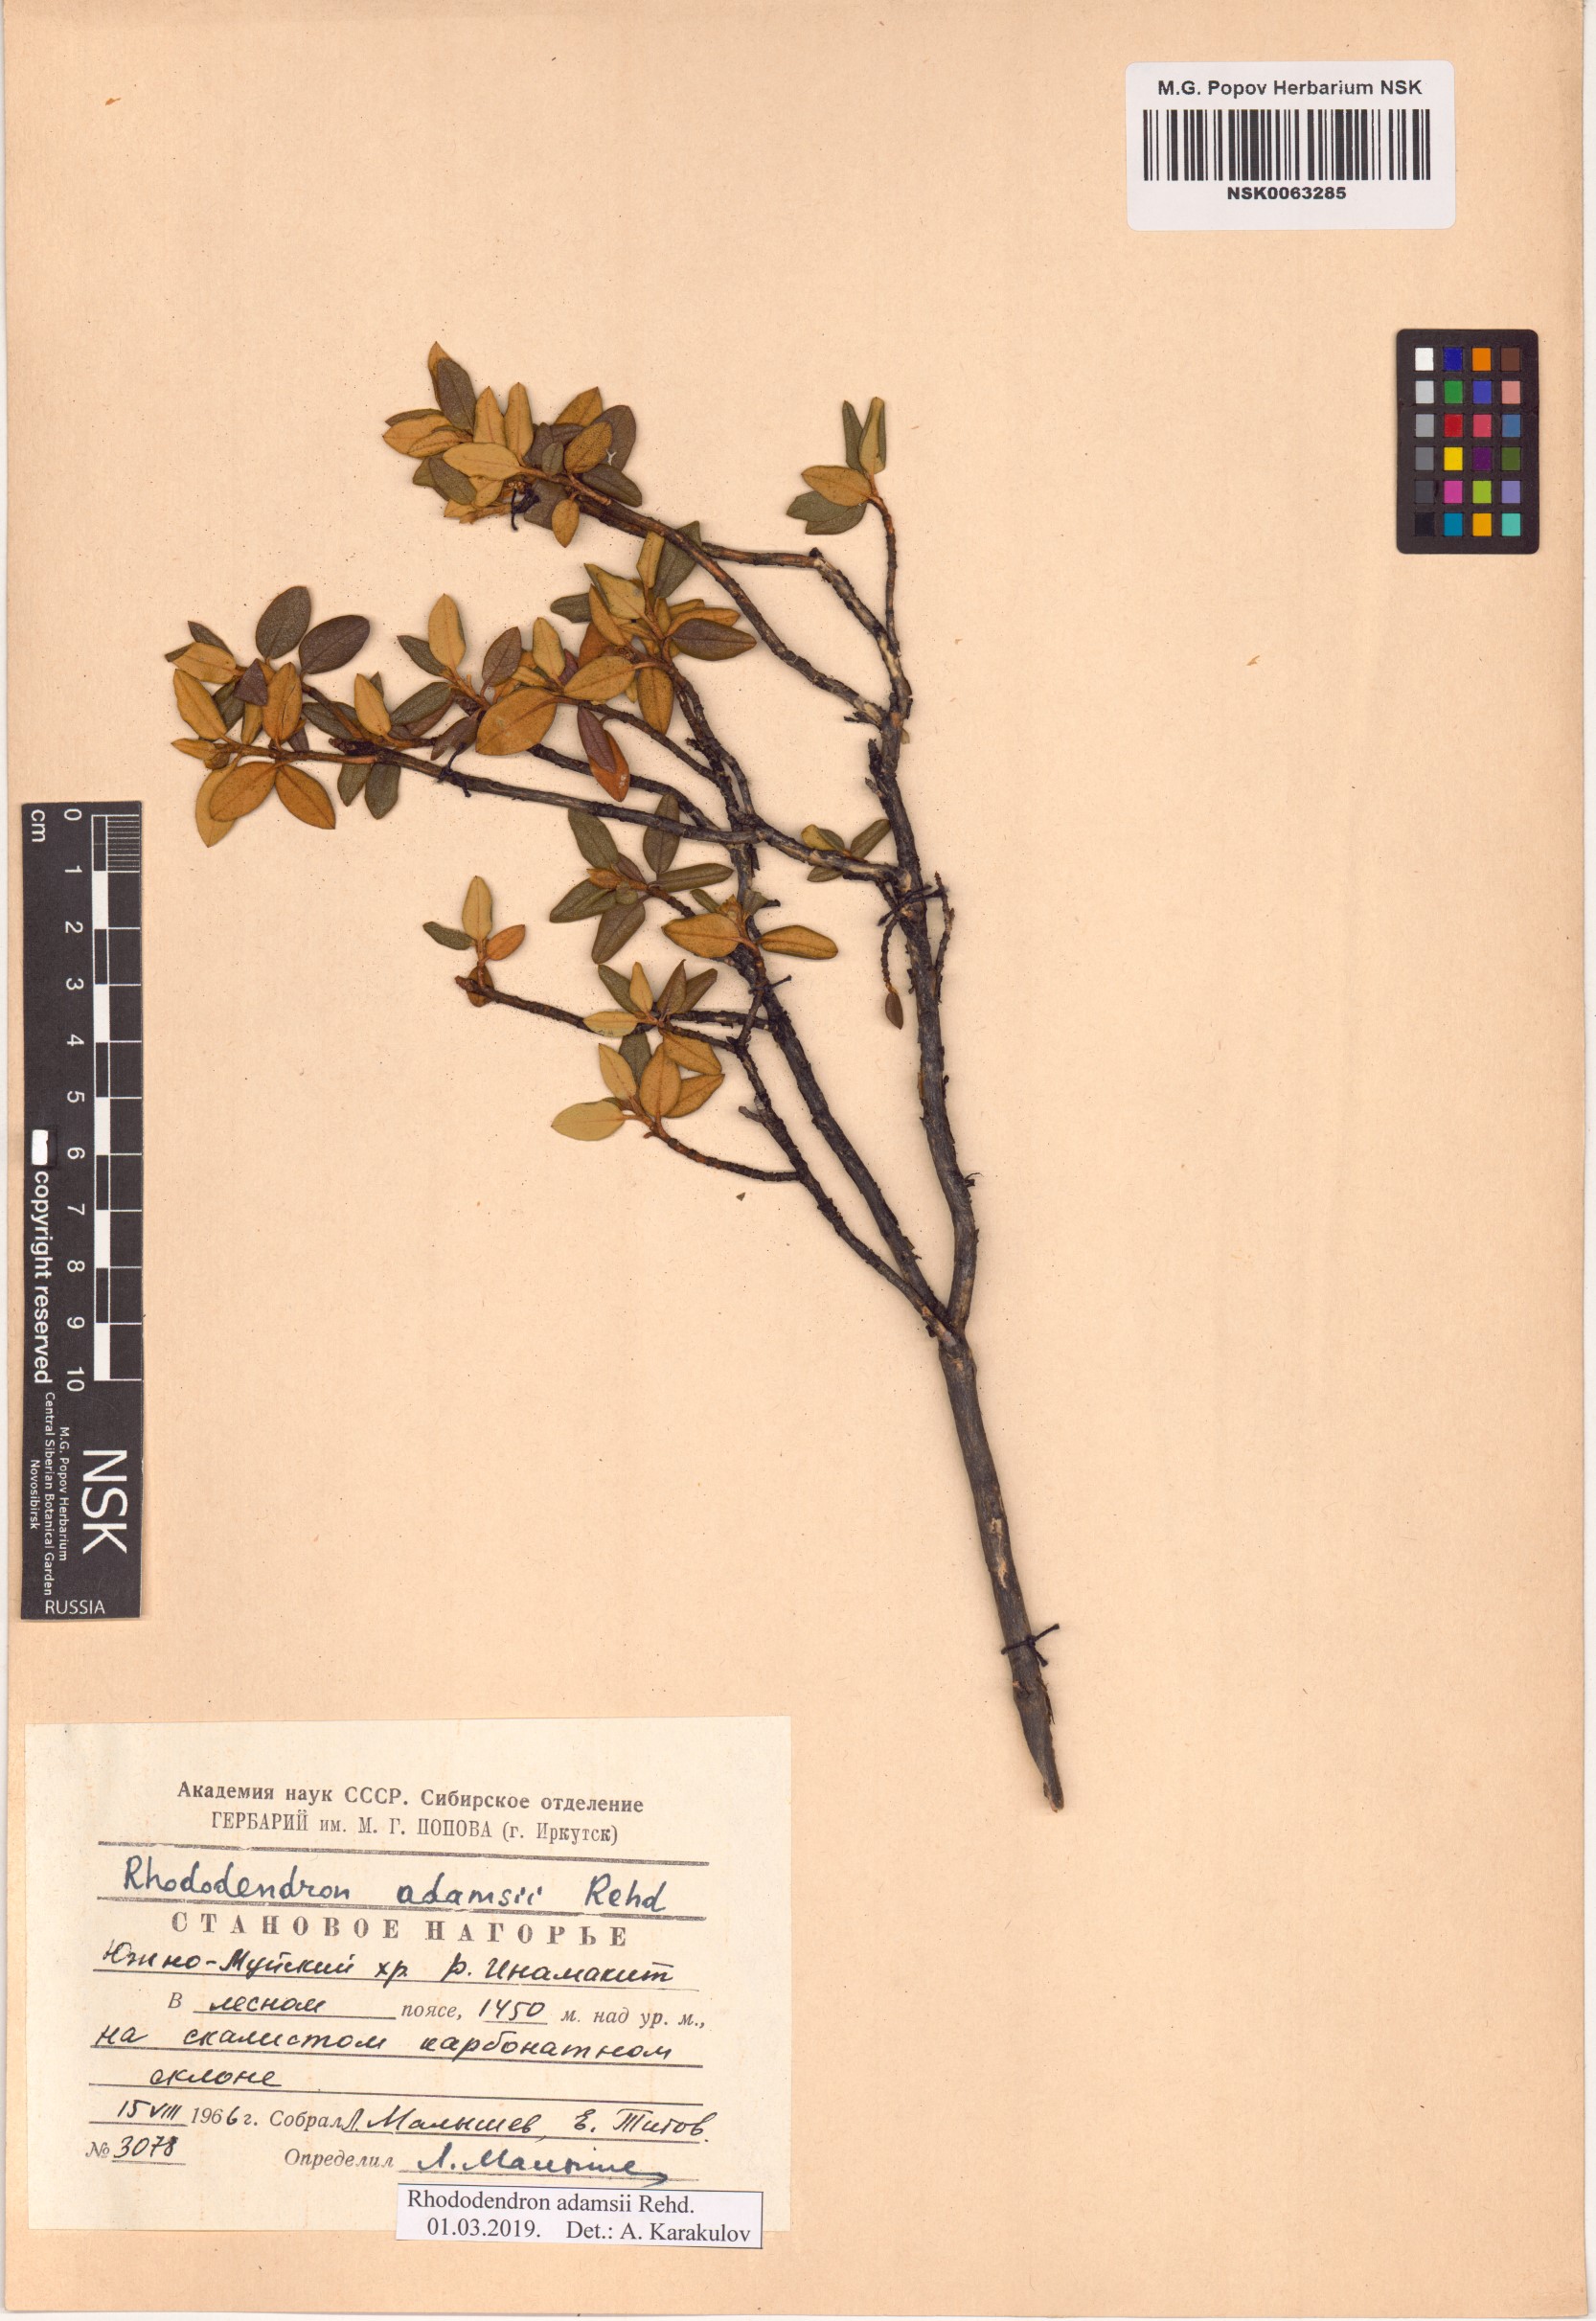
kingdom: Plantae
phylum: Tracheophyta
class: Magnoliopsida
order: Ericales
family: Ericaceae
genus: Rhododendron
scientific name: Rhododendron adamsii
